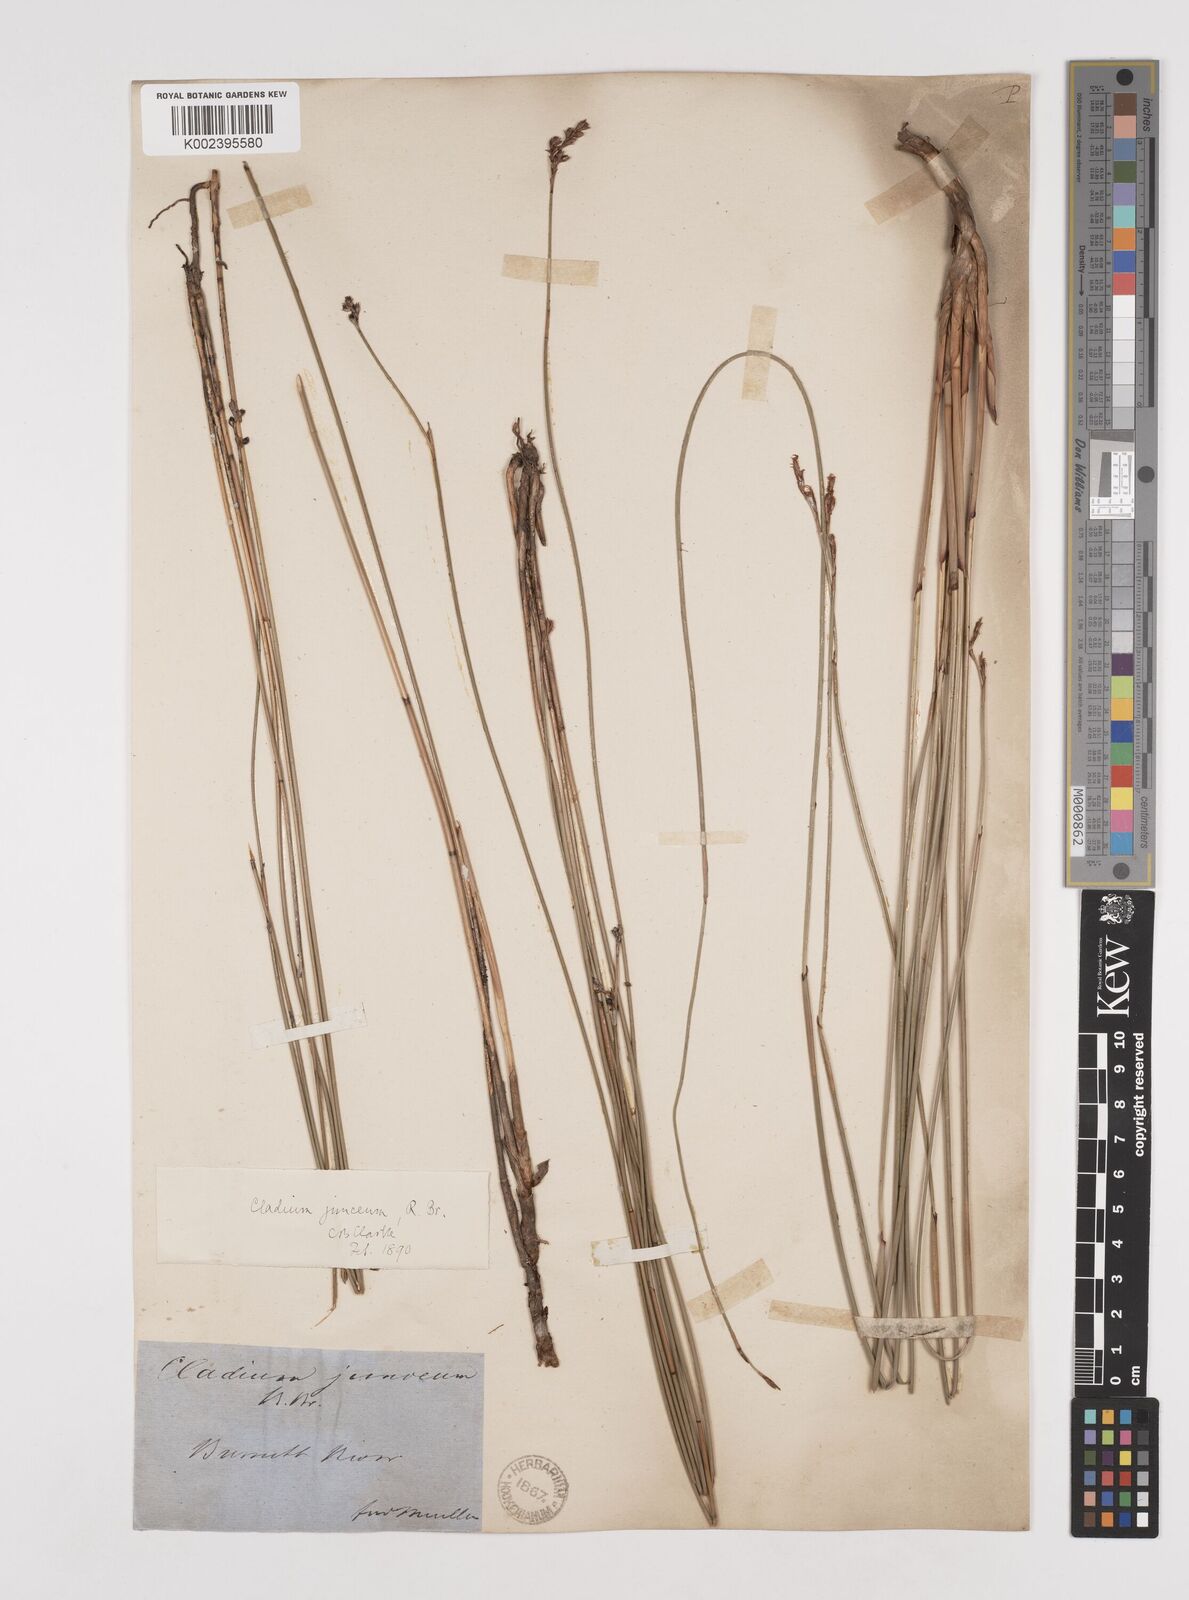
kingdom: Plantae
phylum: Tracheophyta
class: Liliopsida
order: Poales
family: Cyperaceae
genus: Machaerina
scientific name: Machaerina juncea
